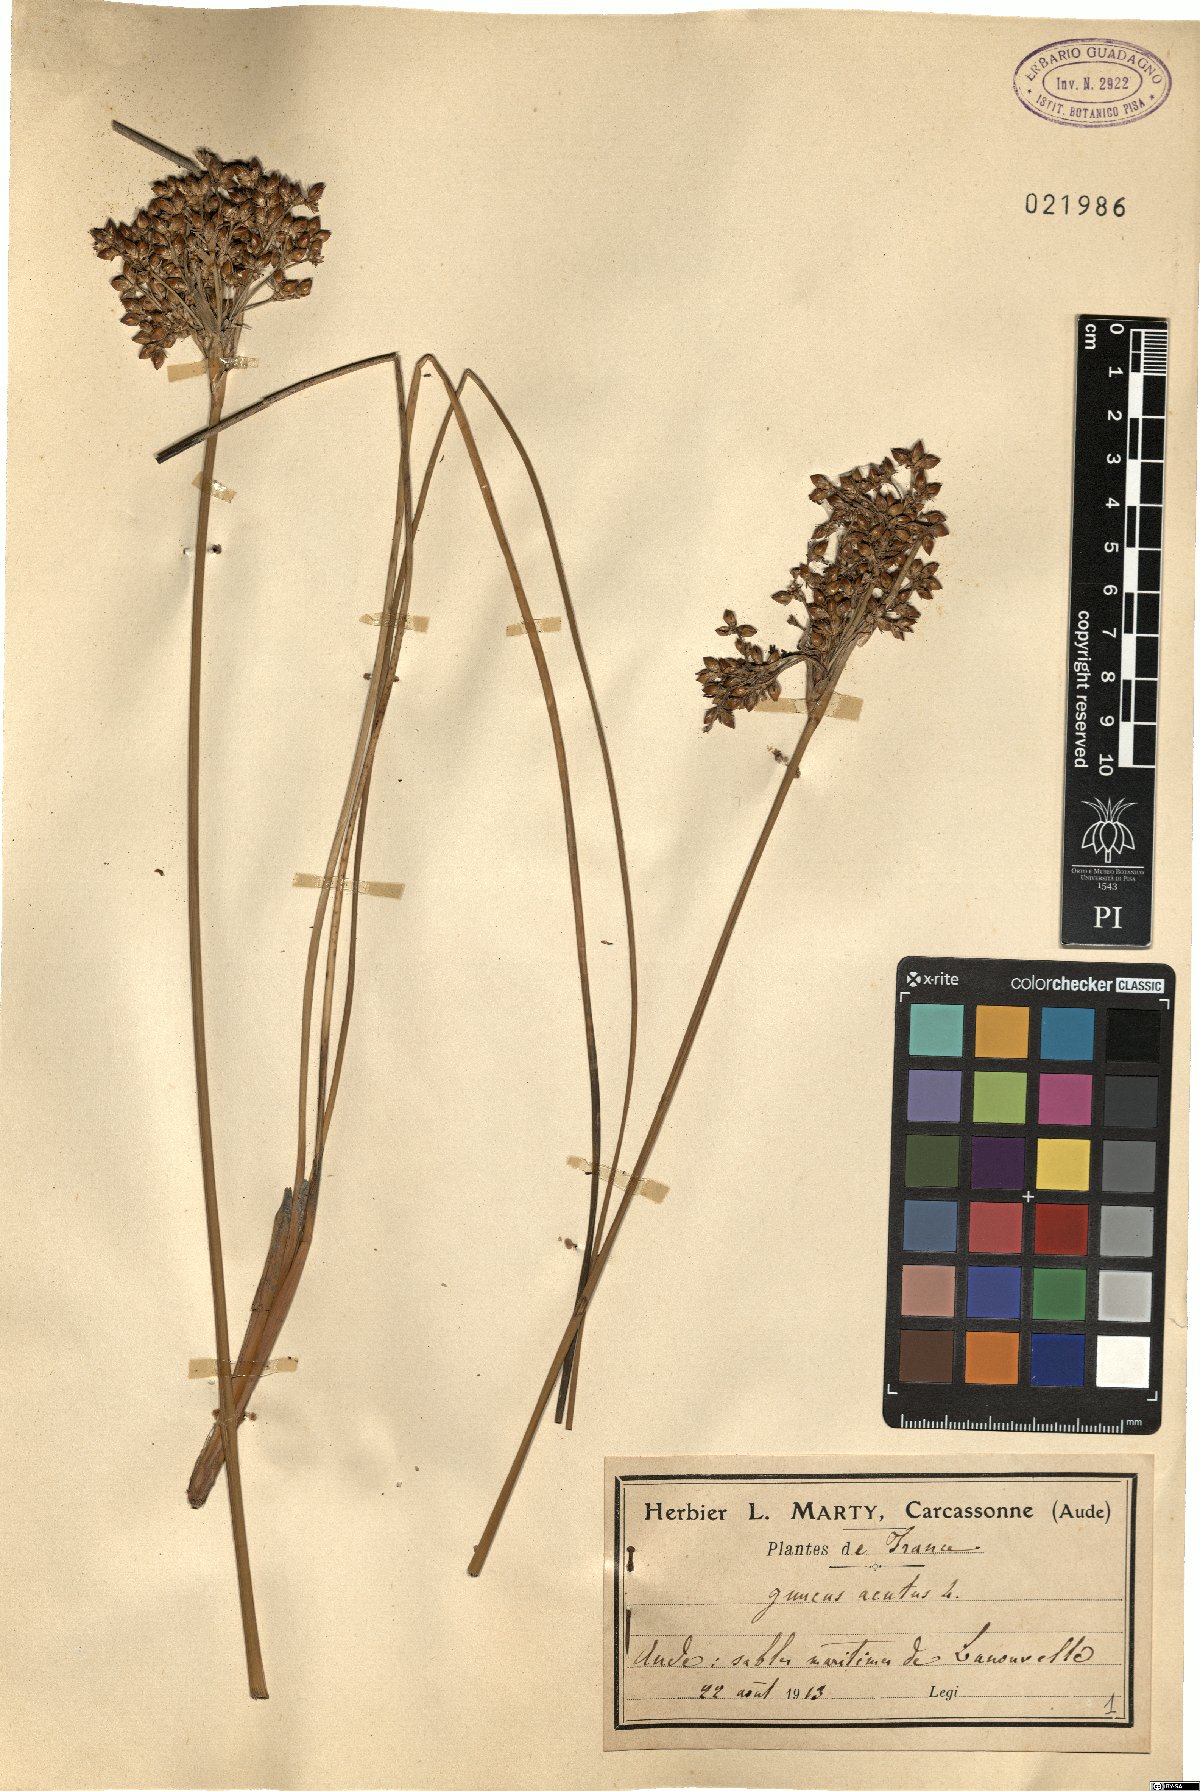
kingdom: Plantae
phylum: Tracheophyta
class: Liliopsida
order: Poales
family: Juncaceae
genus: Juncus
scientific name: Juncus acutus
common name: Sharp rush
